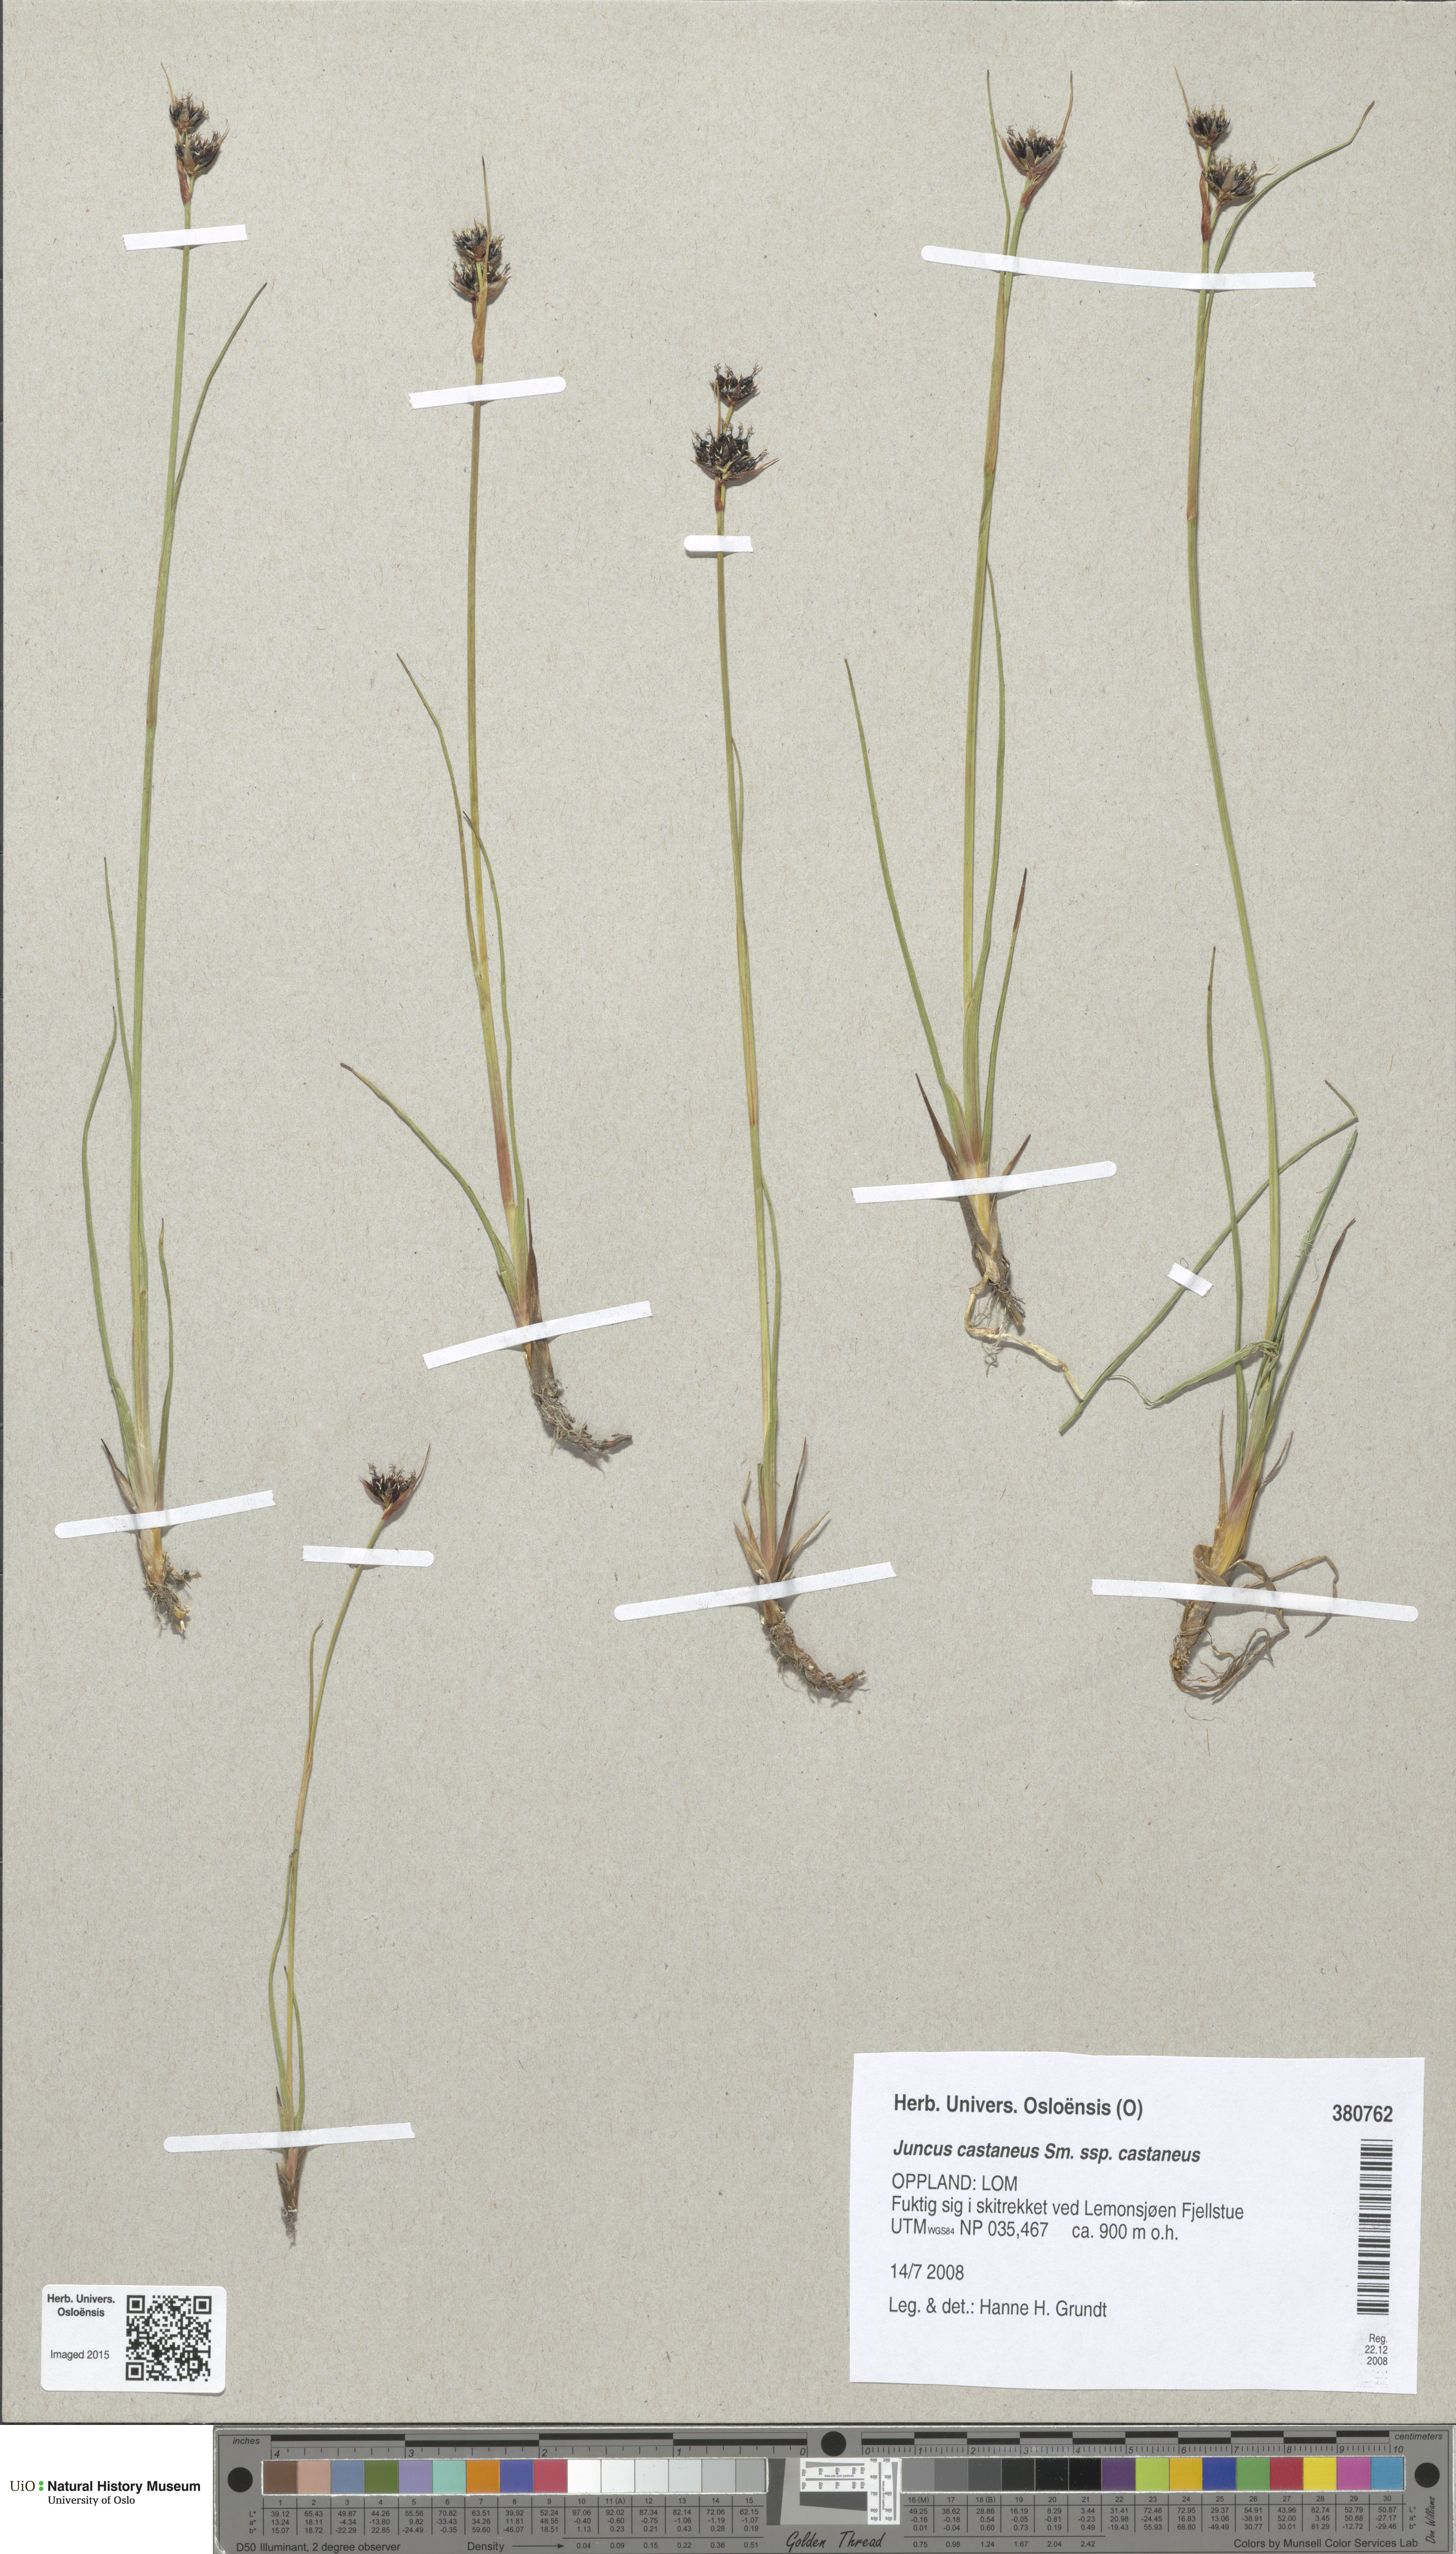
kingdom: Plantae
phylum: Tracheophyta
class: Liliopsida
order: Poales
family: Juncaceae
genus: Juncus
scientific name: Juncus castaneus
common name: Chestnut rush
